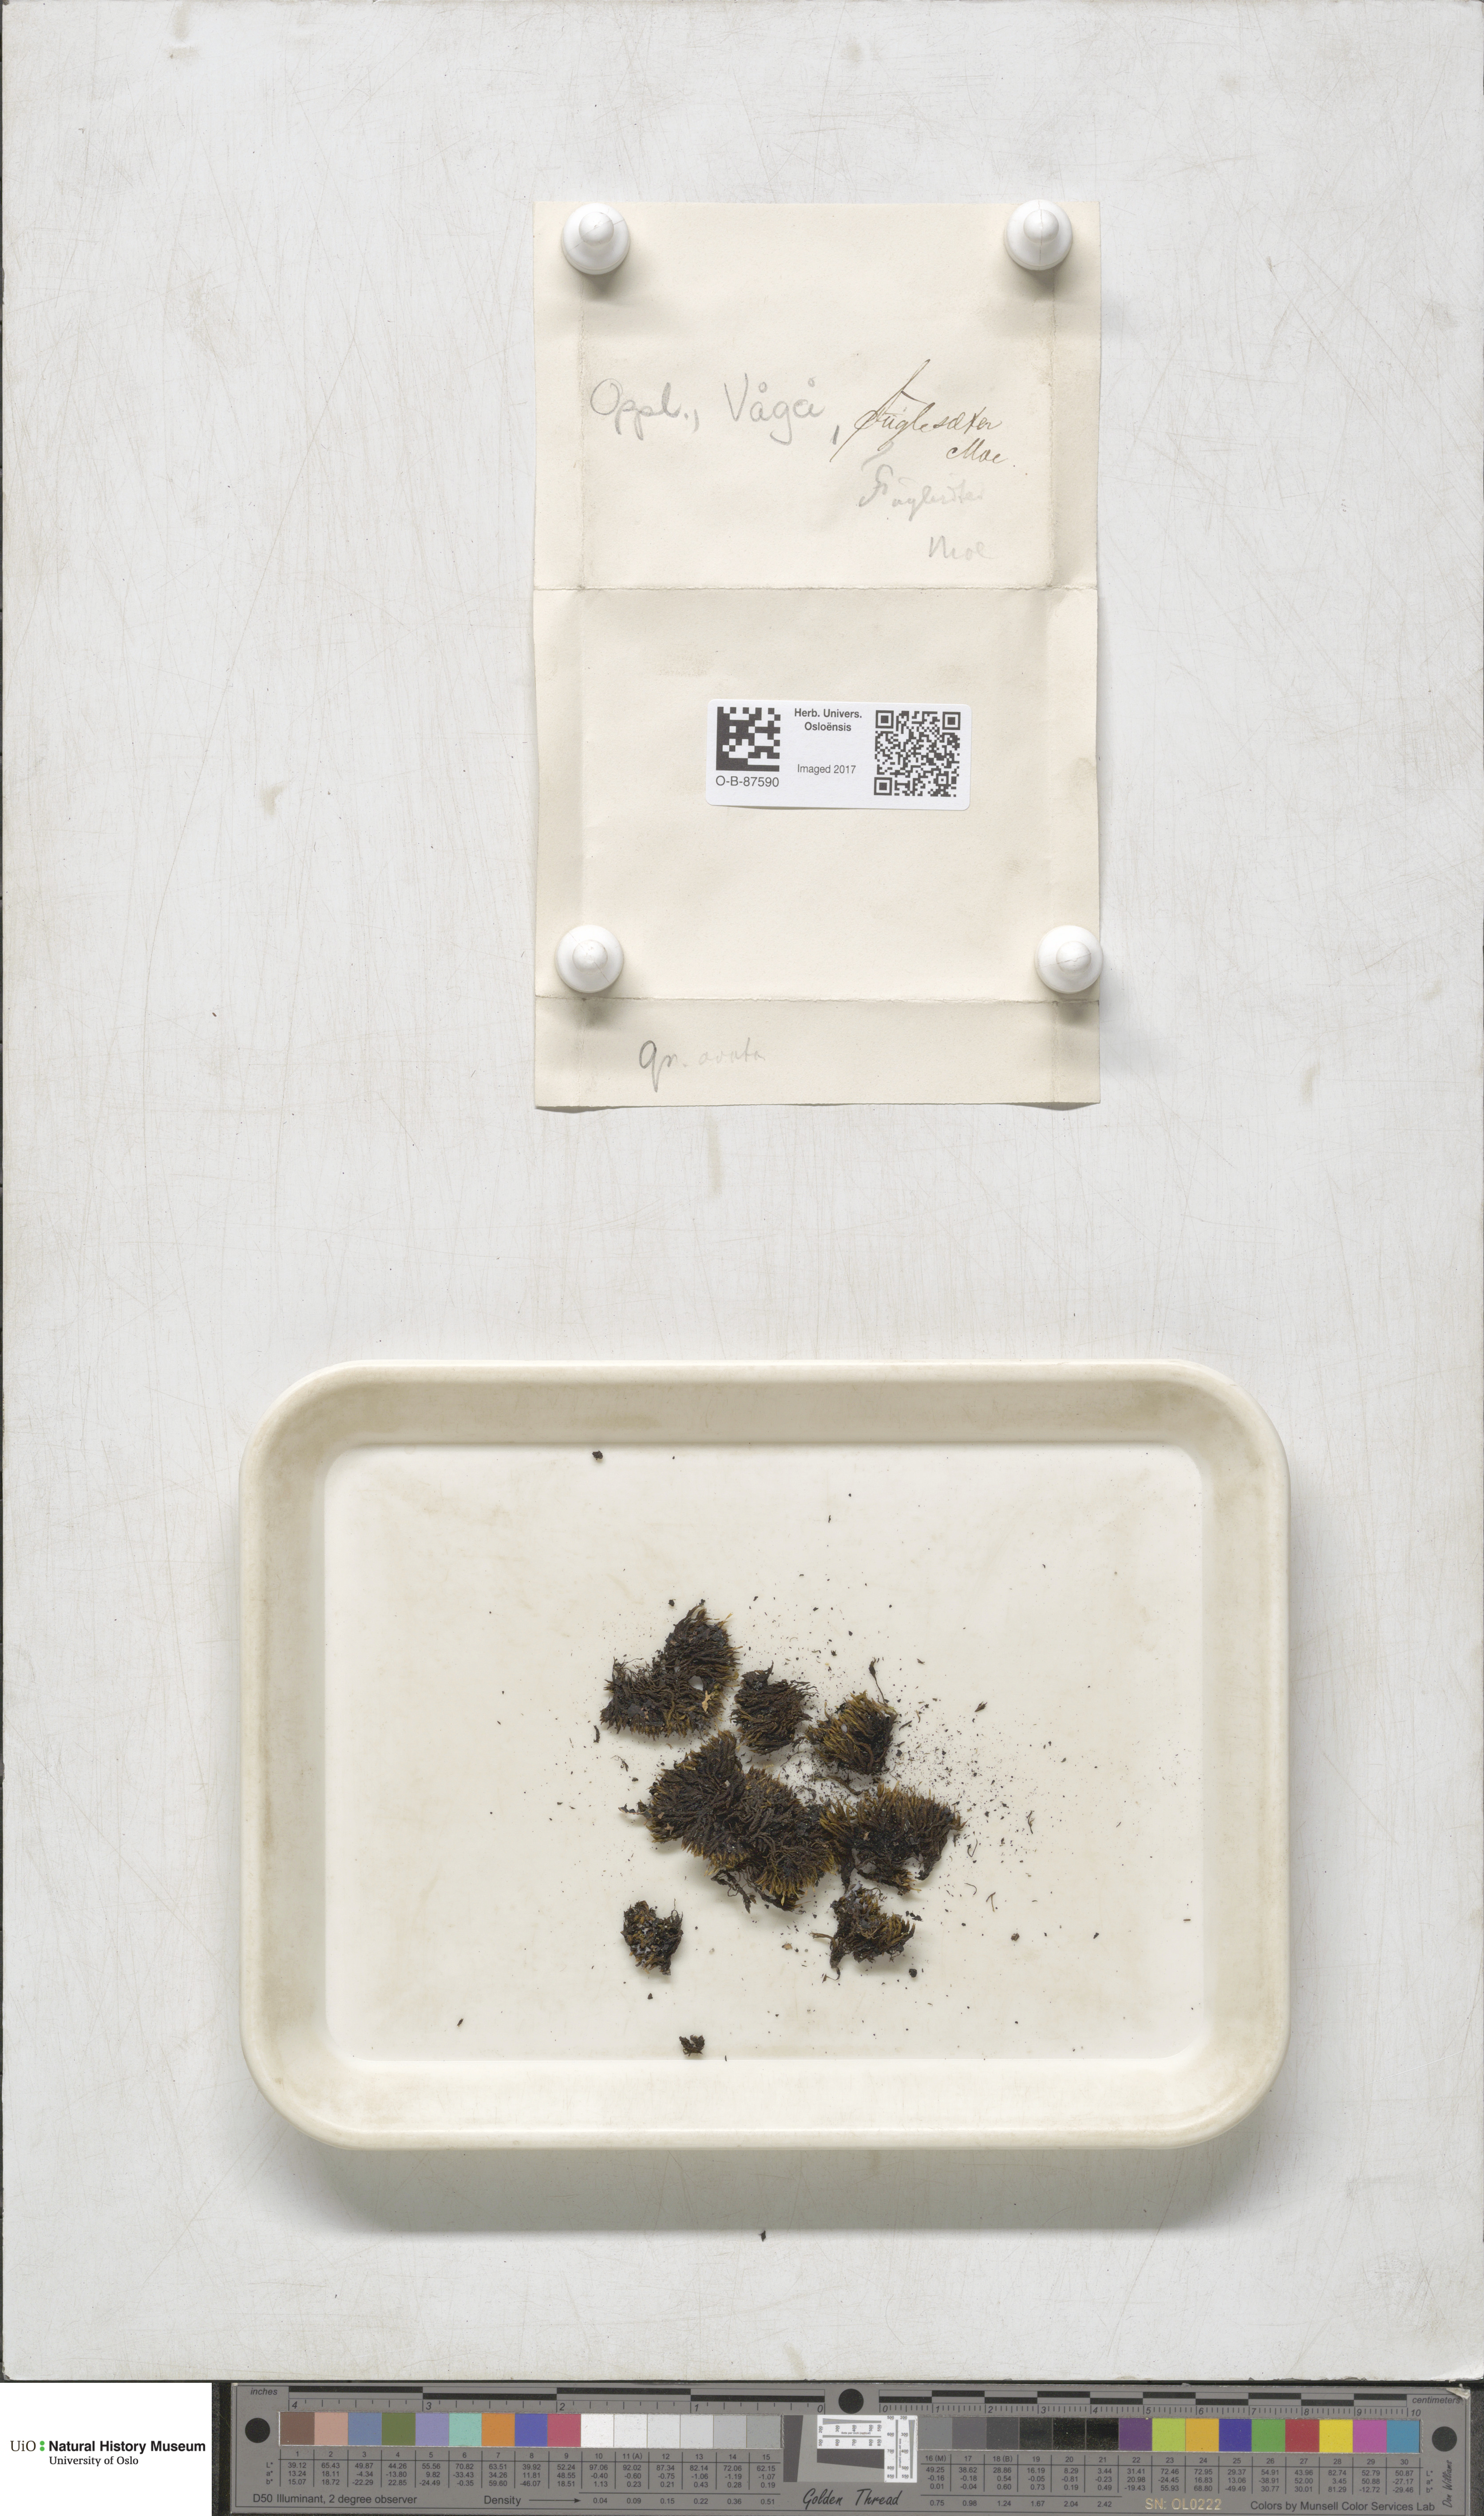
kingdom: Plantae
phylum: Bryophyta
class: Bryopsida
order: Grimmiales
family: Grimmiaceae
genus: Grimmia
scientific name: Grimmia ovalis
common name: Oval grimmia
